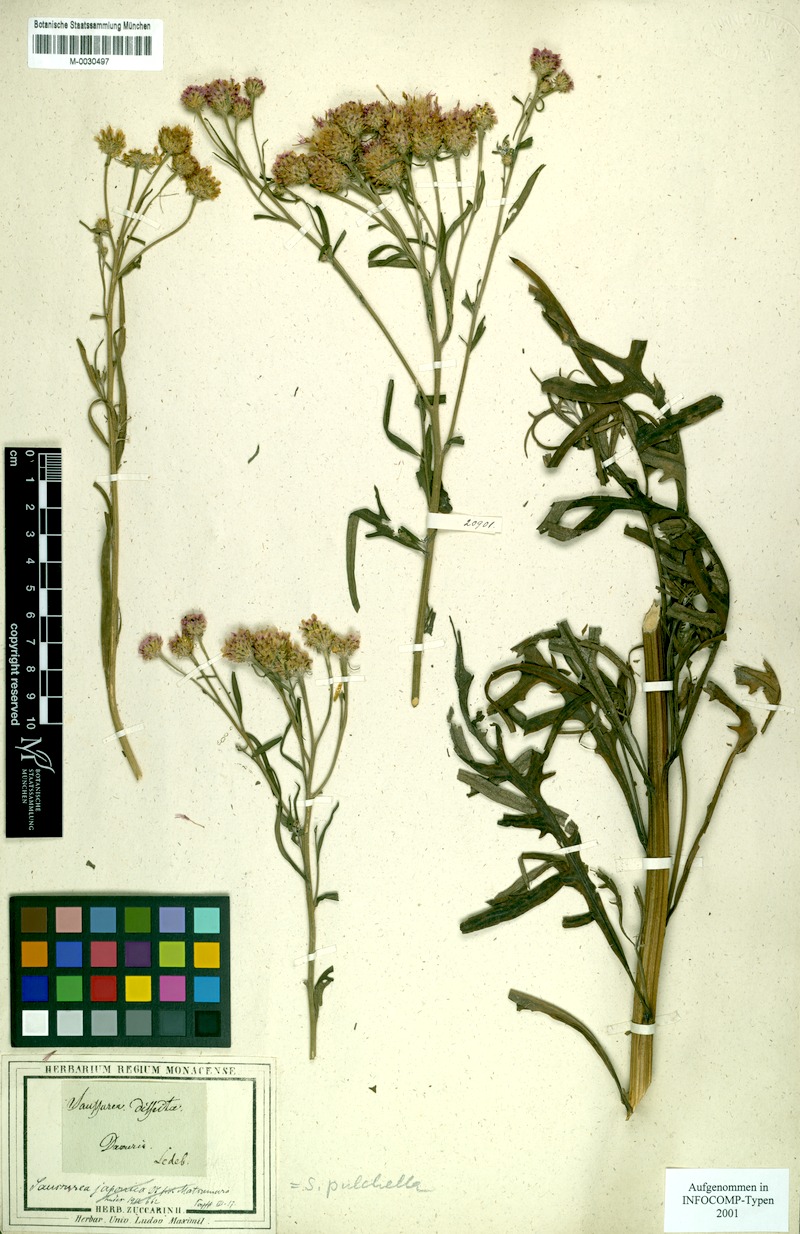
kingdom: Plantae
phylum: Tracheophyta
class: Magnoliopsida
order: Asterales
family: Asteraceae
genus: Saussurea
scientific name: Saussurea pulchella
